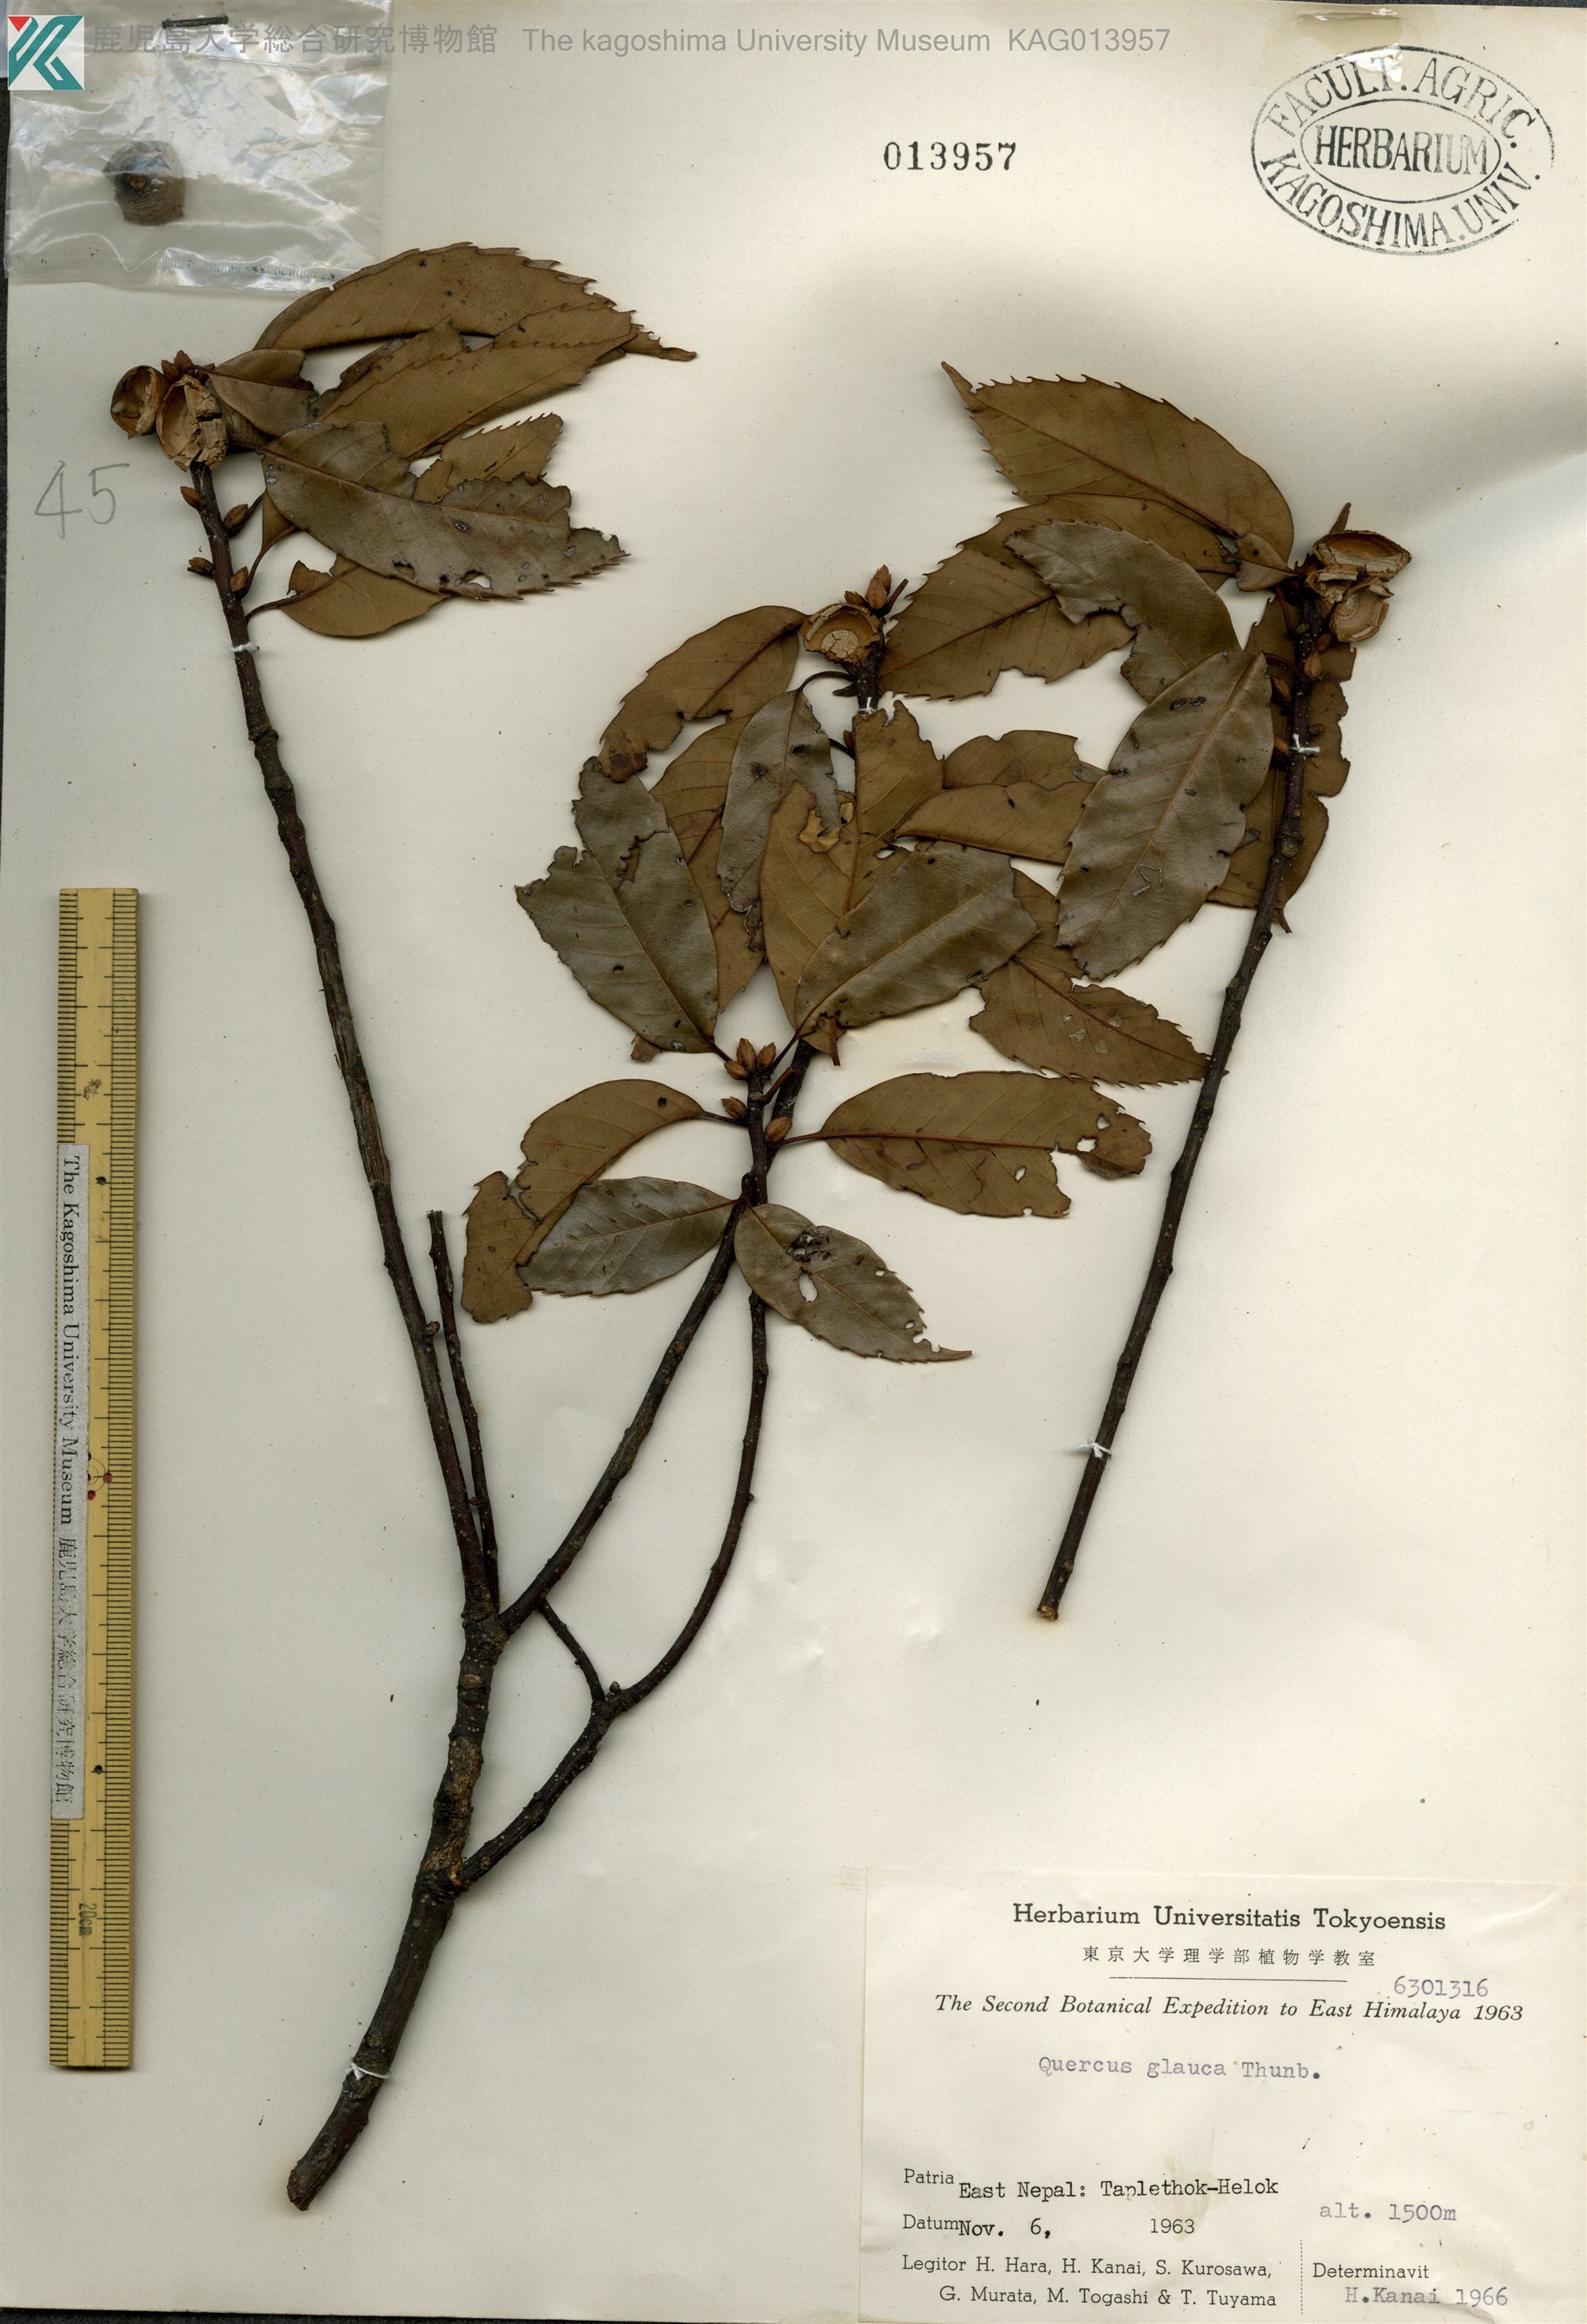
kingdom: Plantae
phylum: Tracheophyta
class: Magnoliopsida
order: Fagales
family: Fagaceae
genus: Quercus
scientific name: Quercus glauca
